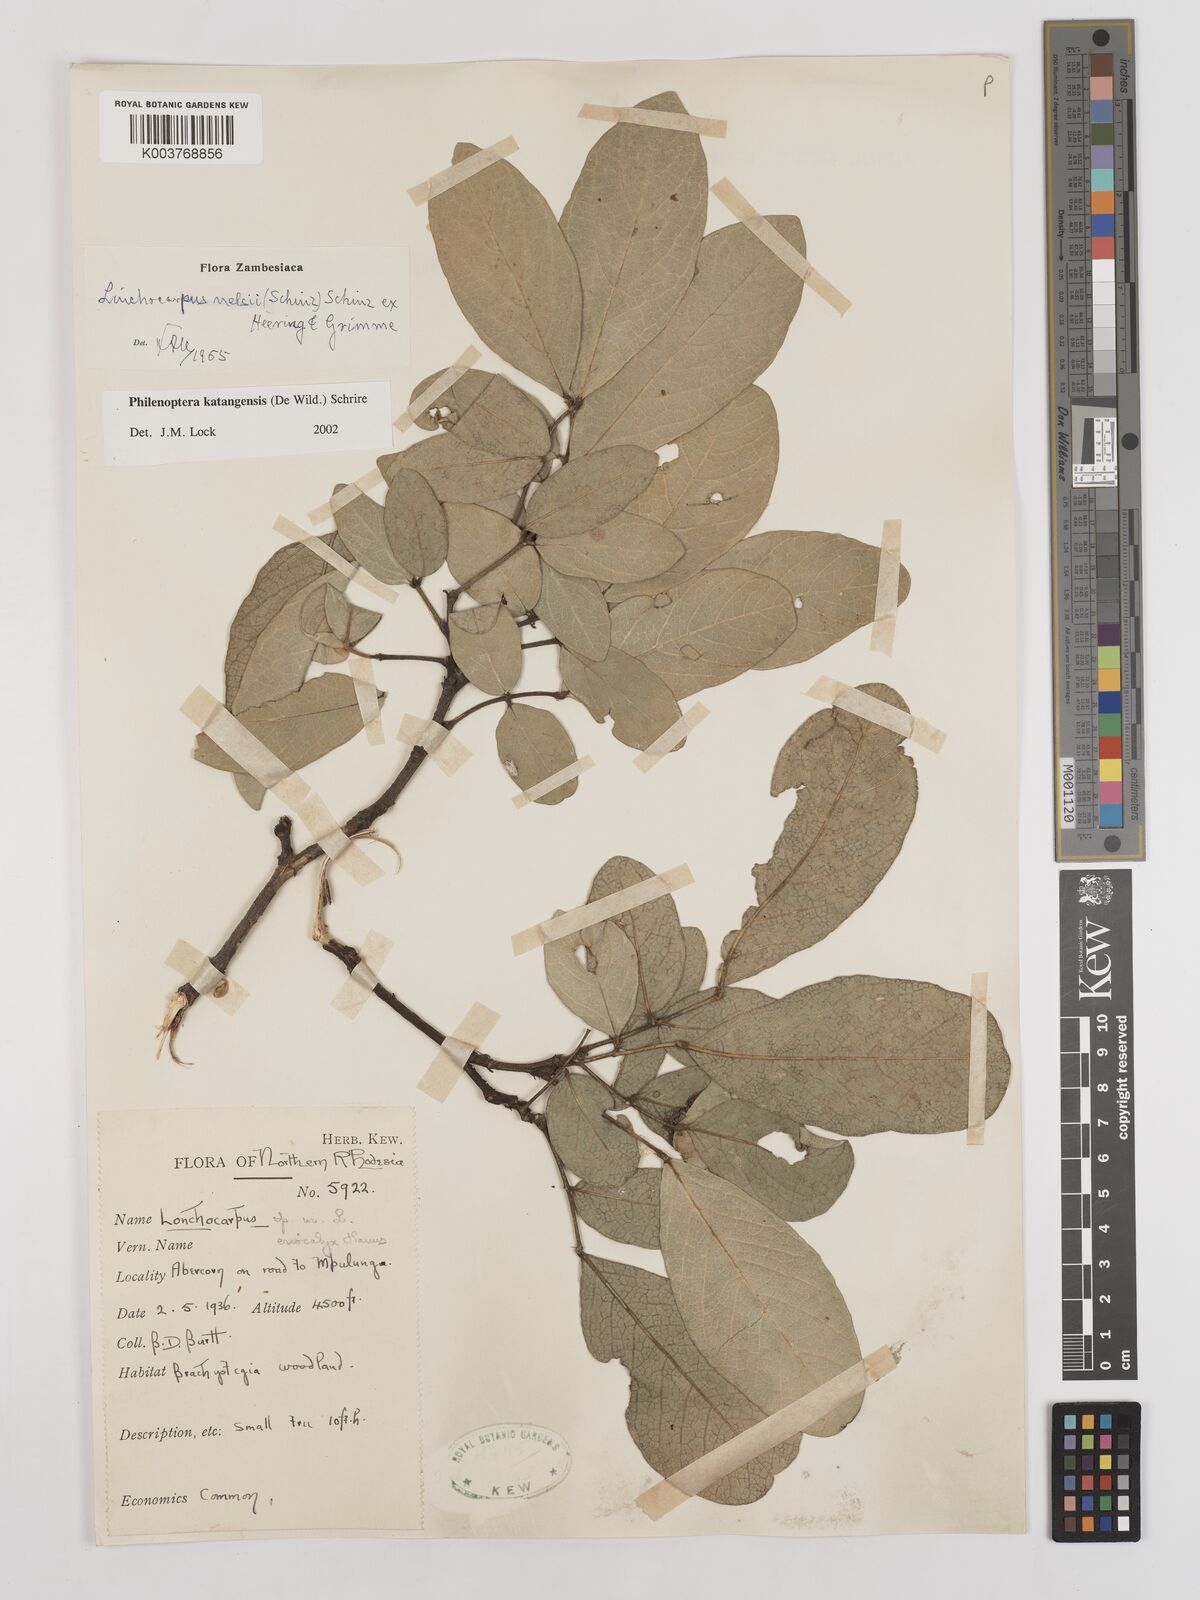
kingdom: Plantae
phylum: Tracheophyta
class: Magnoliopsida
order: Fabales
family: Fabaceae
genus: Philenoptera
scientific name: Philenoptera katangensis
